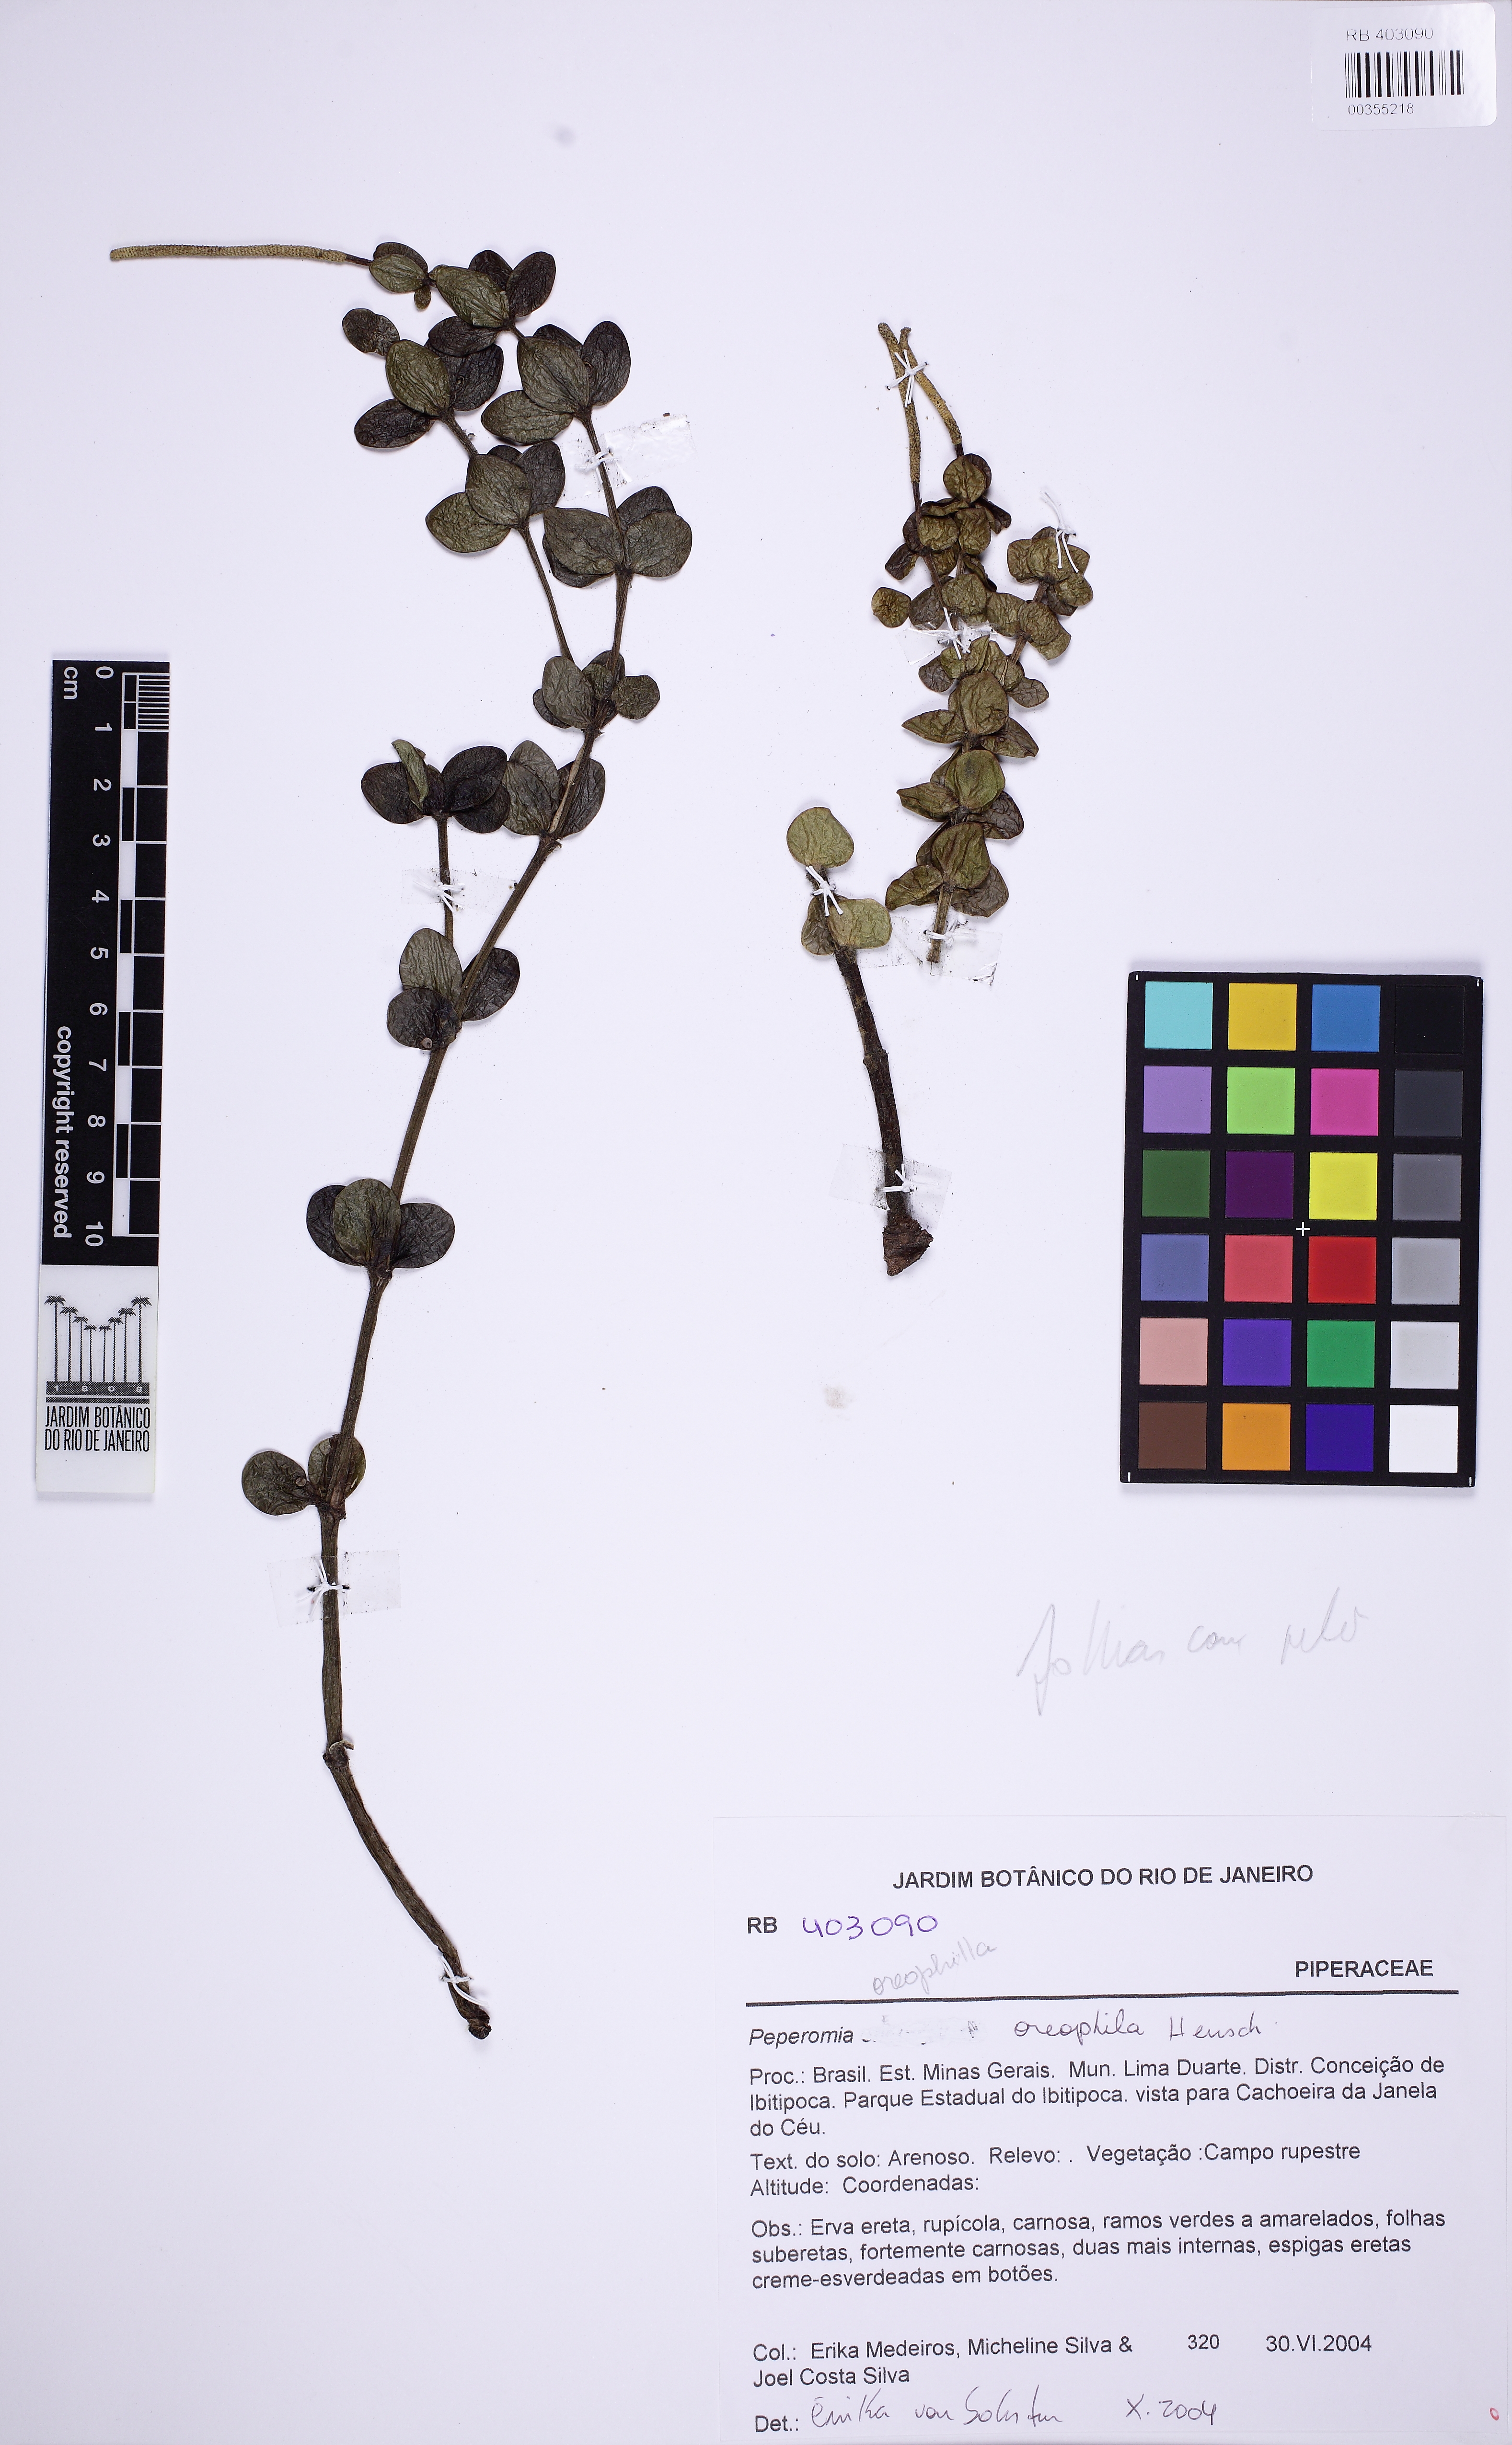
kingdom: Plantae
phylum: Tracheophyta
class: Magnoliopsida
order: Piperales
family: Piperaceae
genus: Peperomia
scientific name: Peperomia oreophila
